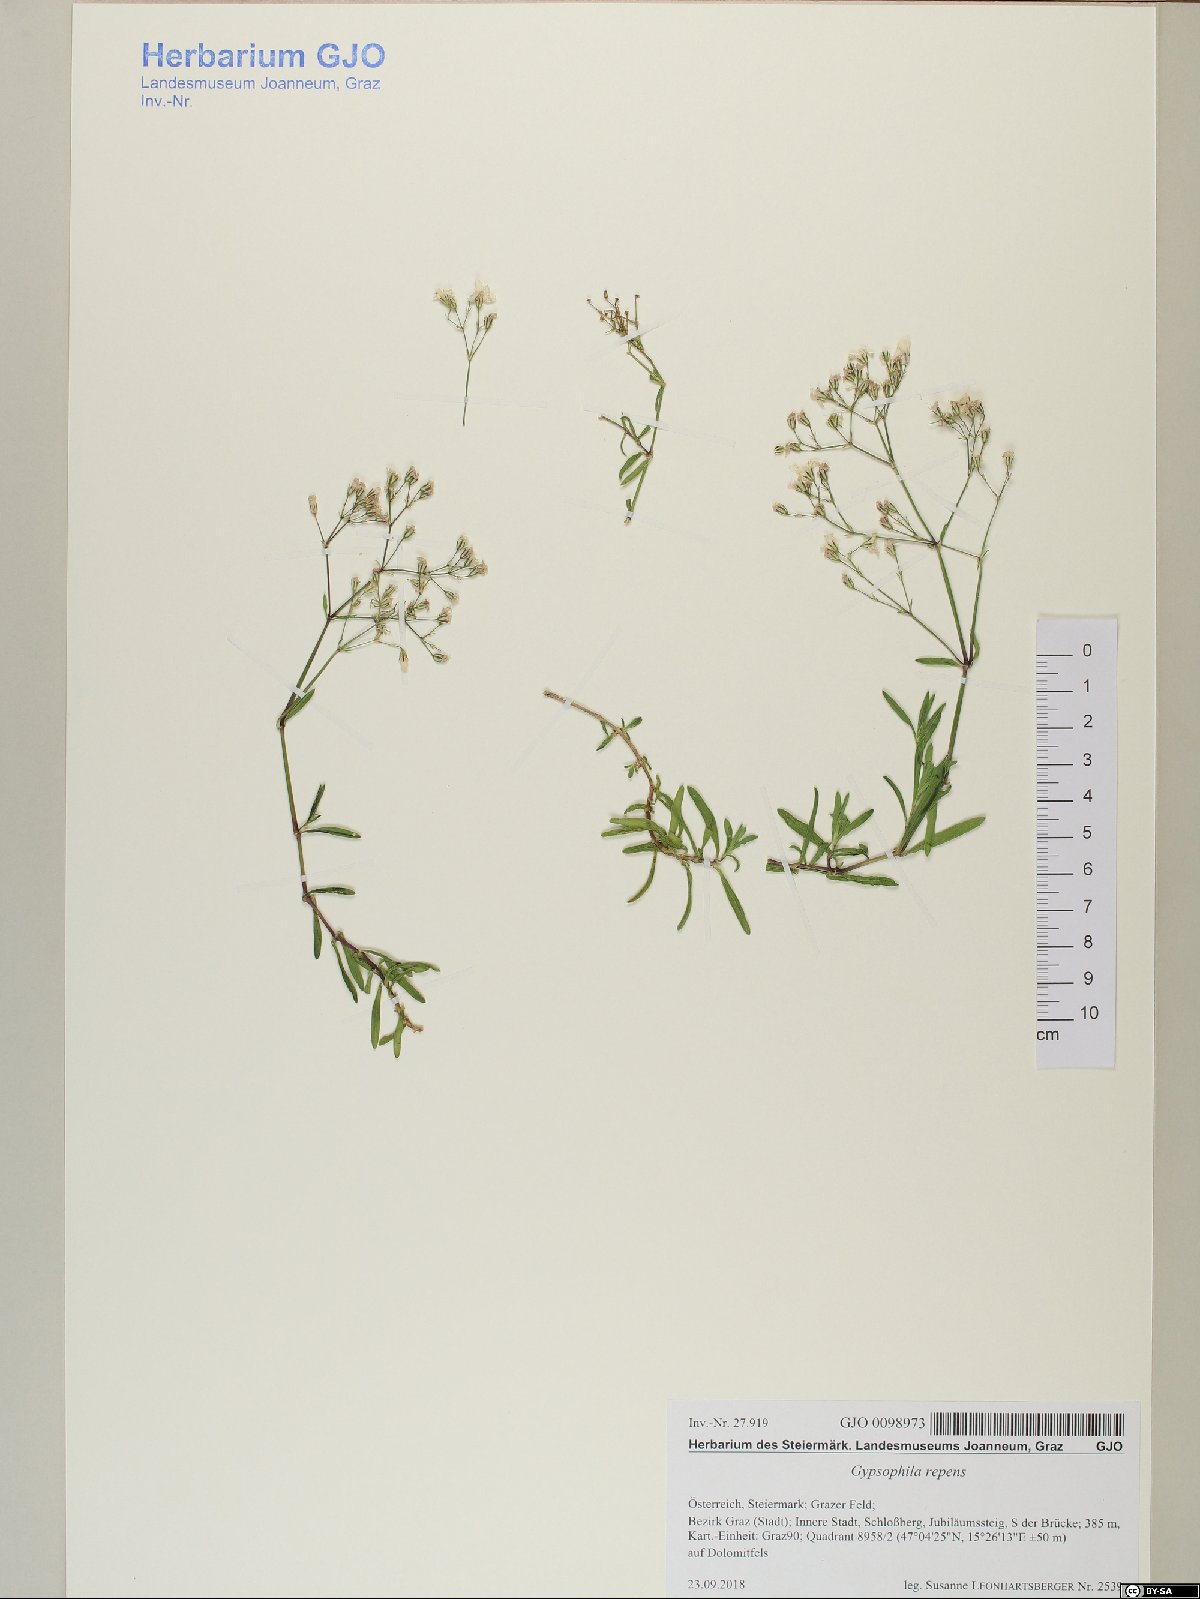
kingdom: Plantae
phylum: Tracheophyta
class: Magnoliopsida
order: Caryophyllales
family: Caryophyllaceae
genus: Gypsophila
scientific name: Gypsophila repens
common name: Creeping baby's-breath
